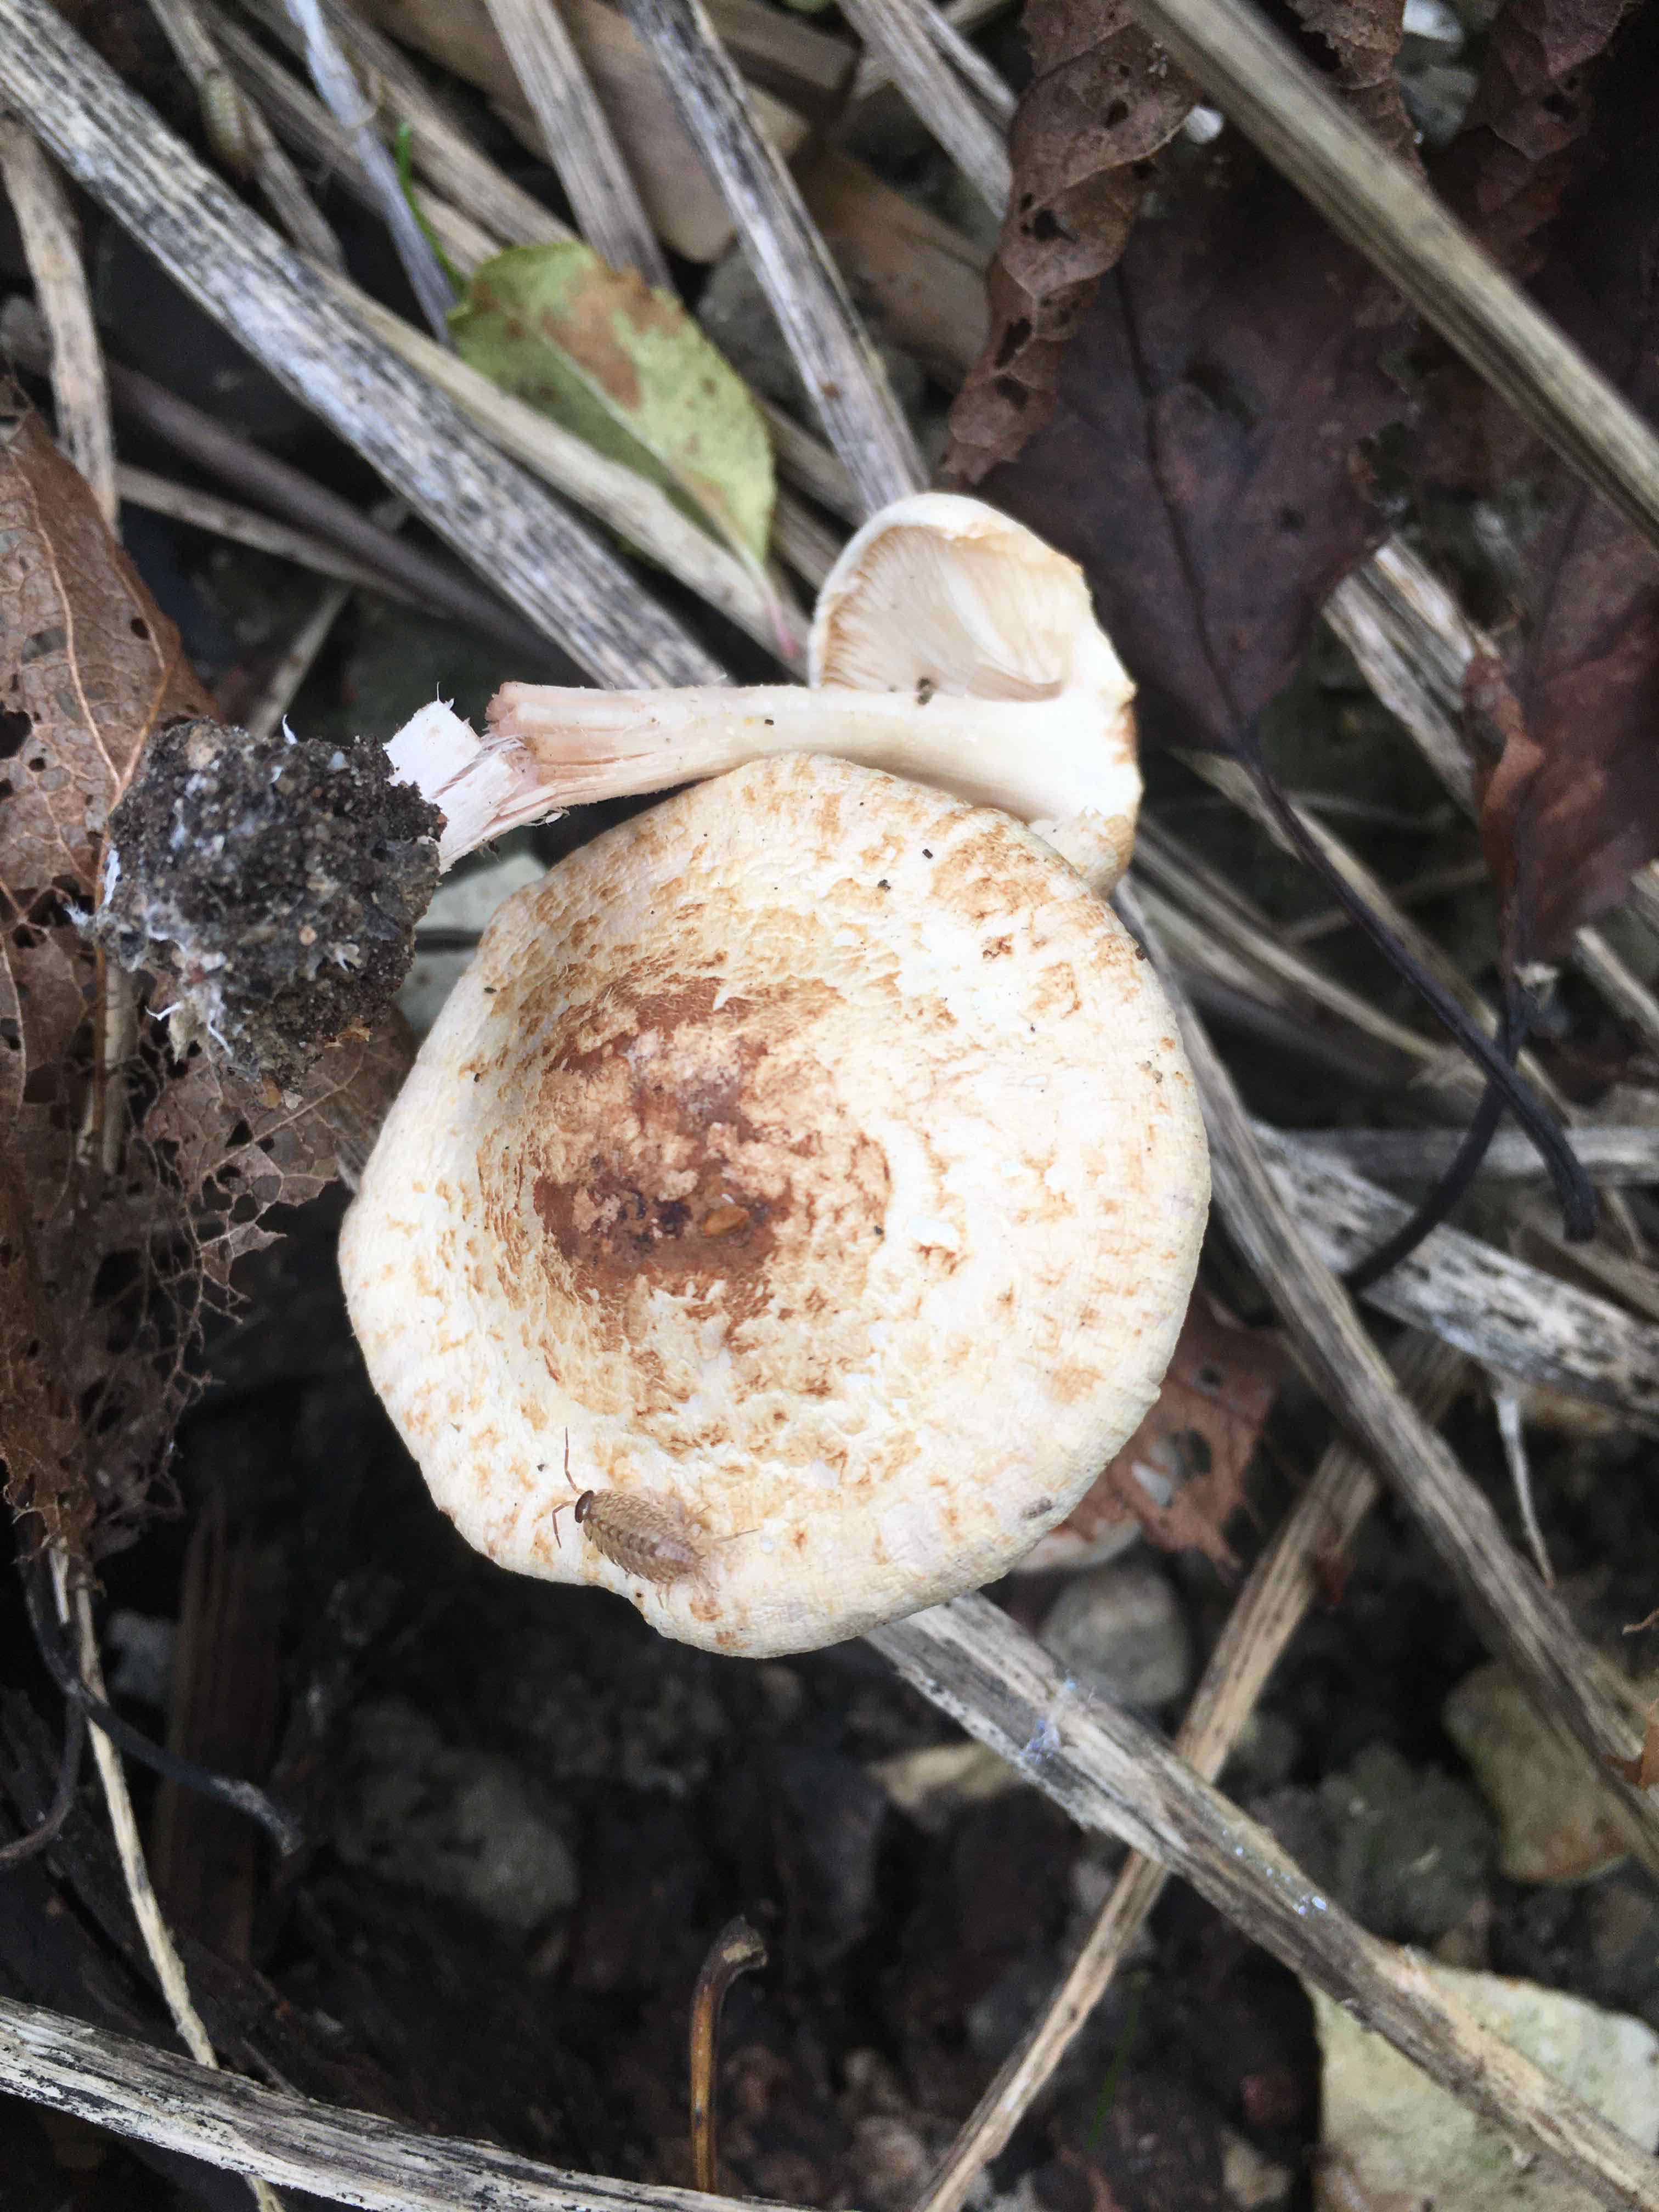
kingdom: Fungi
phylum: Basidiomycota
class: Agaricomycetes
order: Agaricales
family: Agaricaceae
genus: Agaricus
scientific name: Agaricus dulcidulus
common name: blegrød champignon
